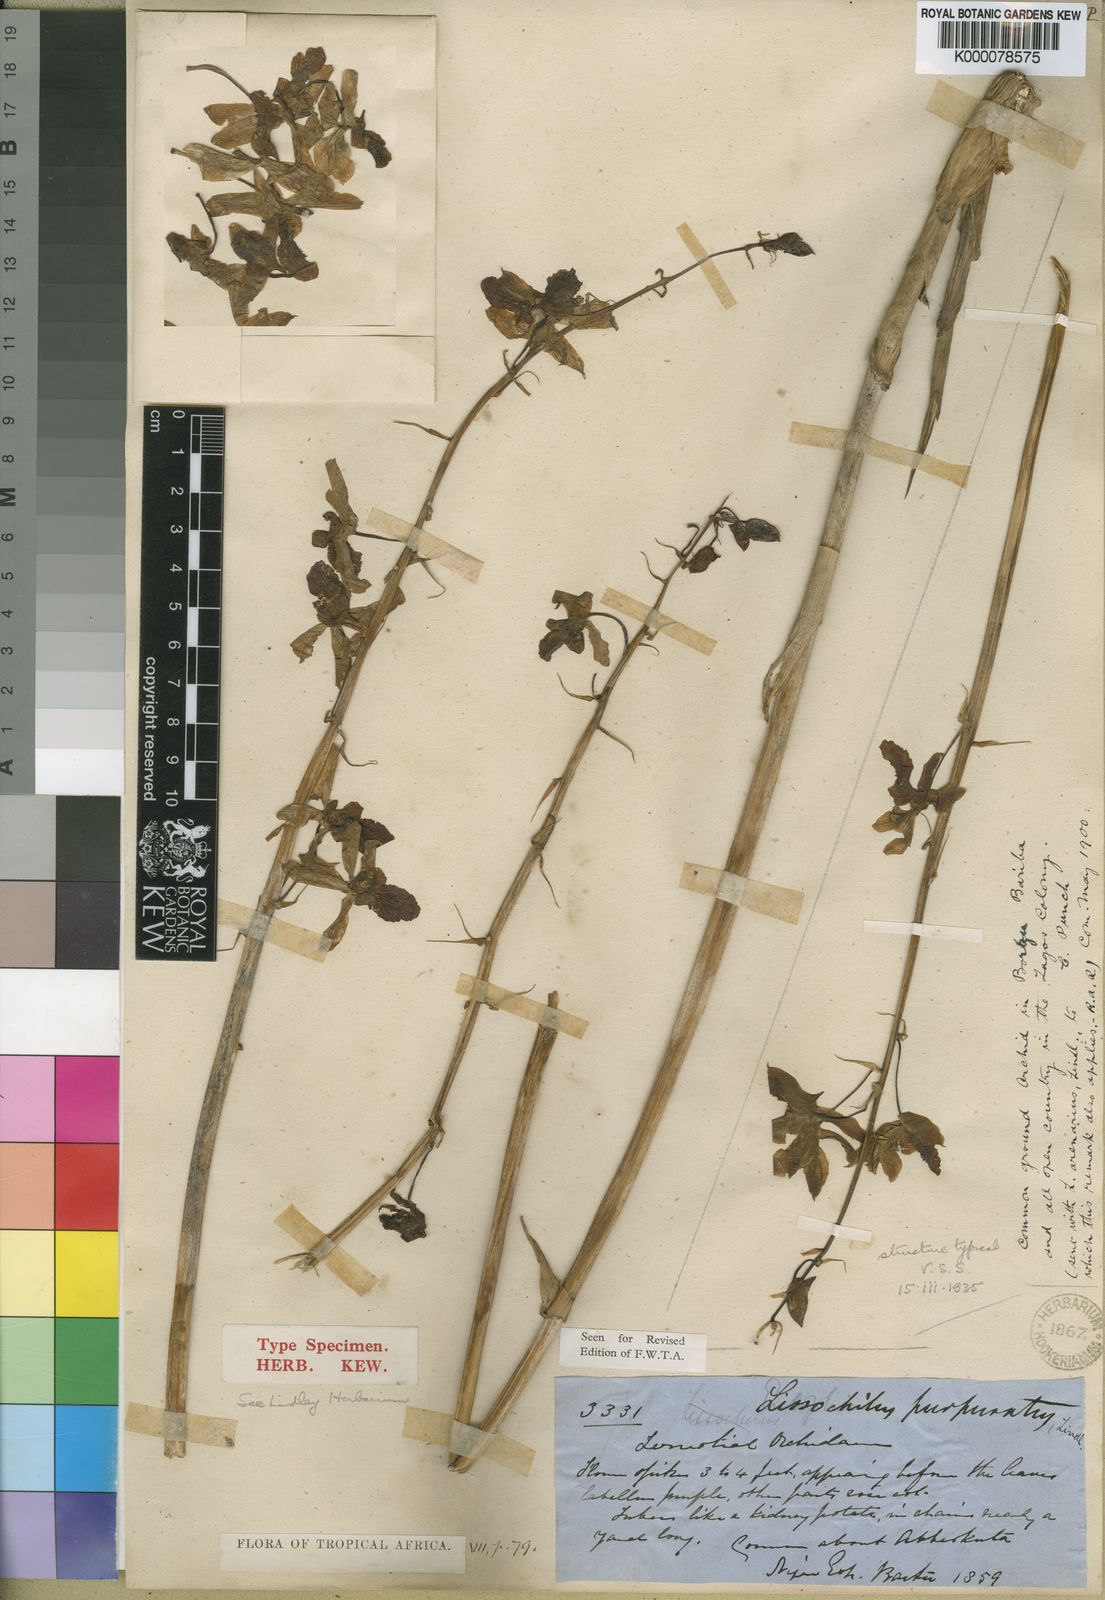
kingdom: Plantae
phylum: Tracheophyta
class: Liliopsida
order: Asparagales
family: Orchidaceae
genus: Eulophia
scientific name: Eulophia cristata
